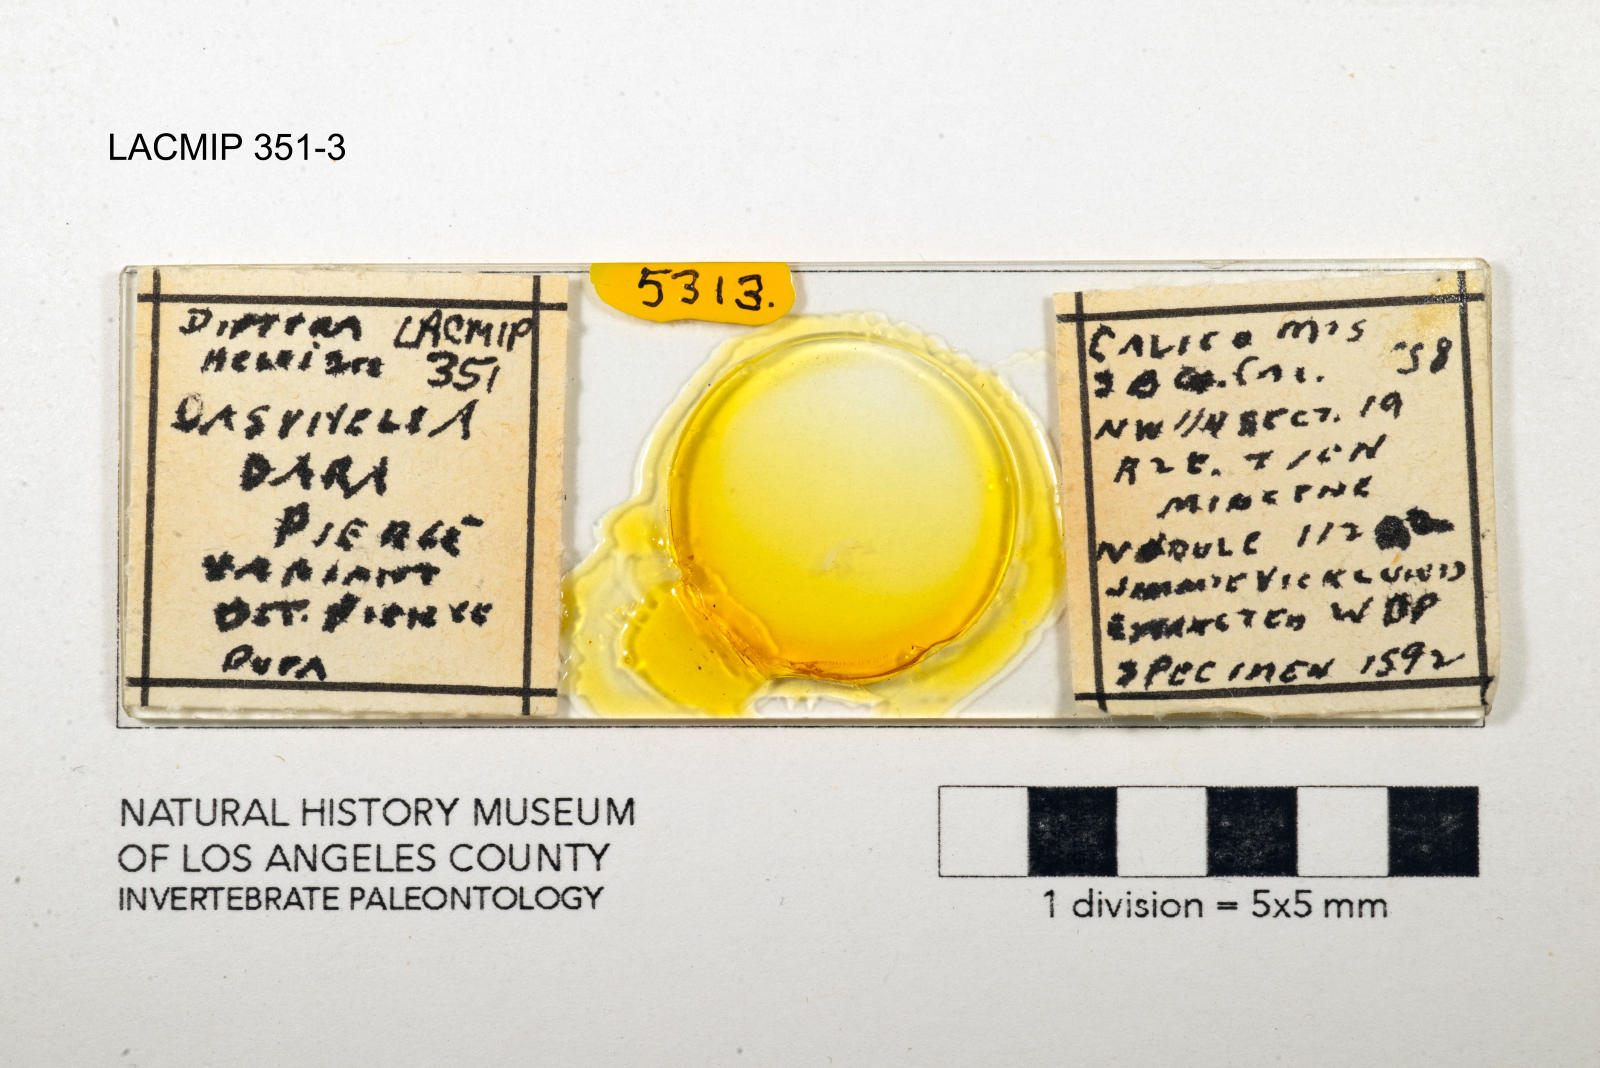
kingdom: Animalia
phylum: Arthropoda
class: Insecta
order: Diptera
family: Ceratopogonidae
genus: Dasyhelea
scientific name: Dasyhelea dara
